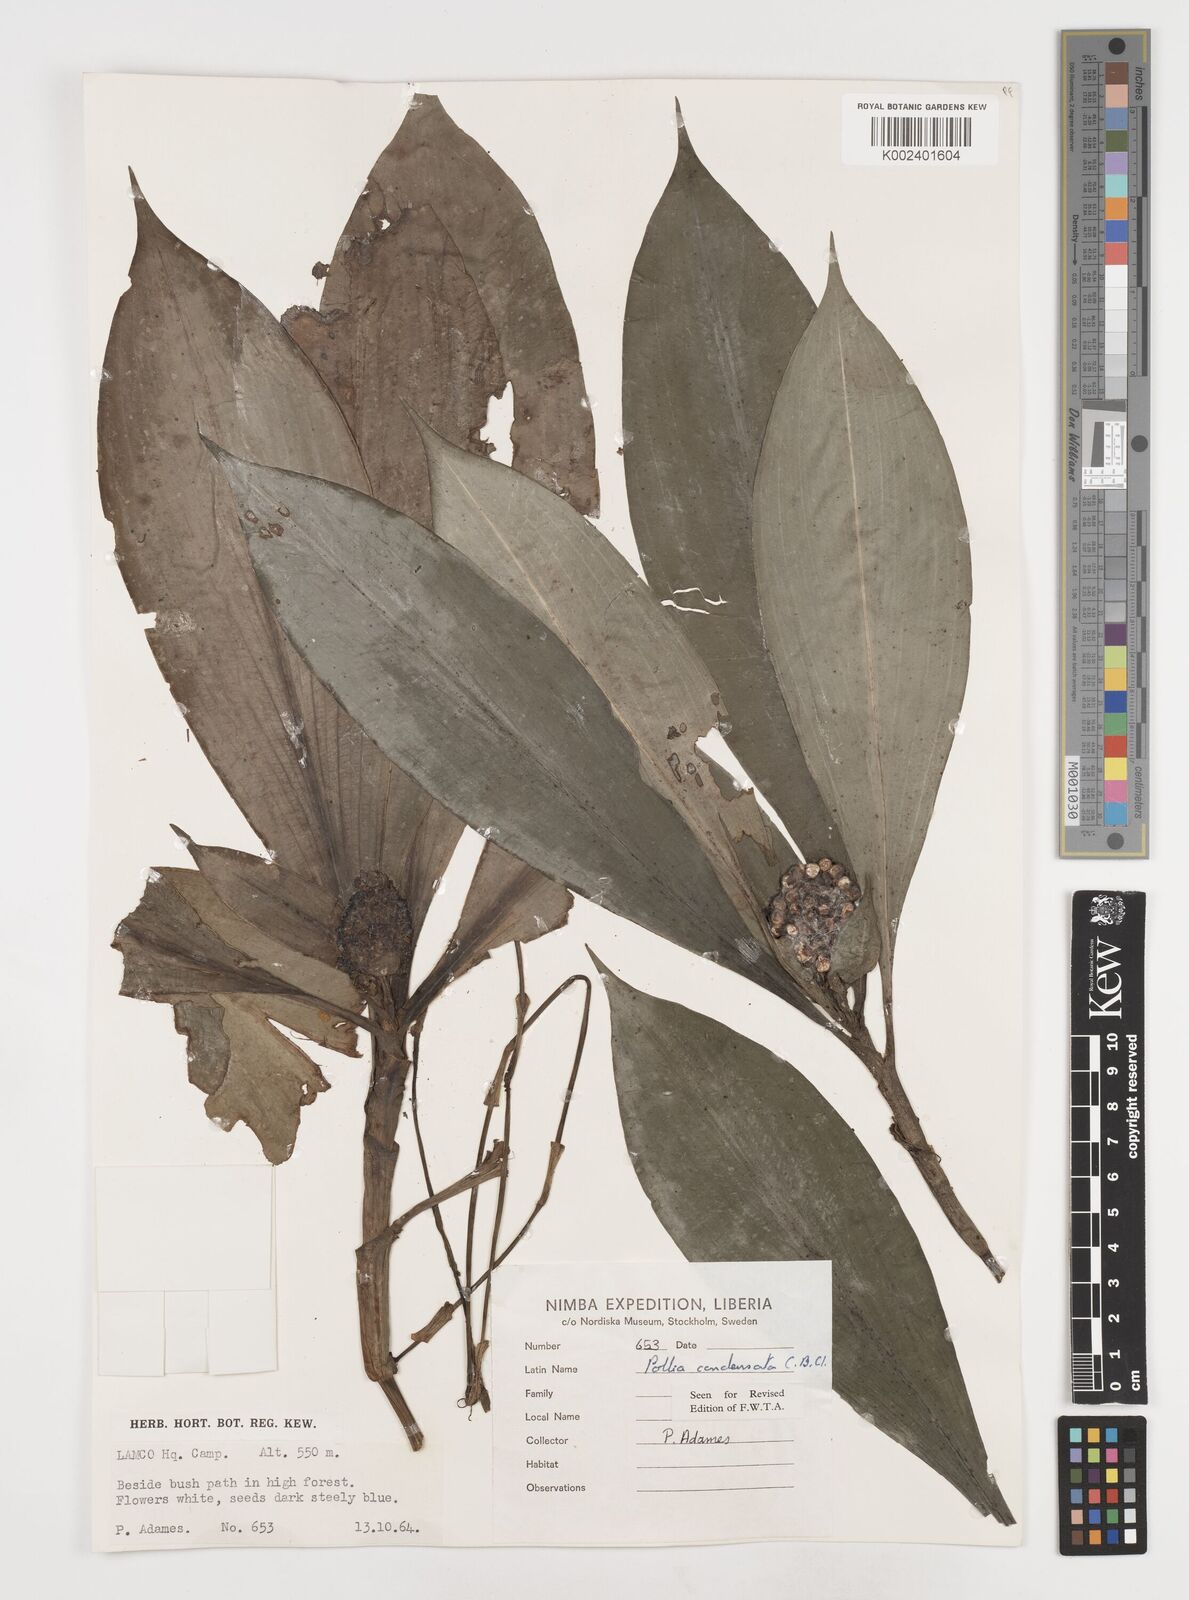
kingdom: Plantae
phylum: Tracheophyta
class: Liliopsida
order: Commelinales
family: Commelinaceae
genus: Pollia
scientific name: Pollia condensata
